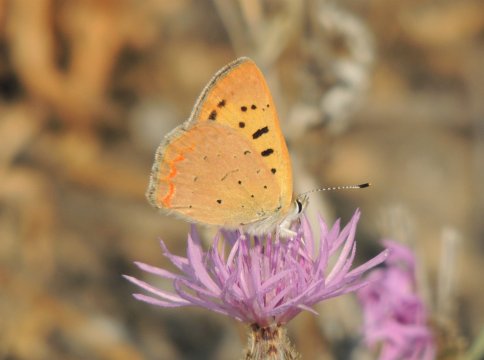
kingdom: Animalia
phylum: Arthropoda
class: Insecta
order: Lepidoptera
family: Sesiidae
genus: Sesia
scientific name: Sesia Lycaena helloides
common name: Purplish Copper
